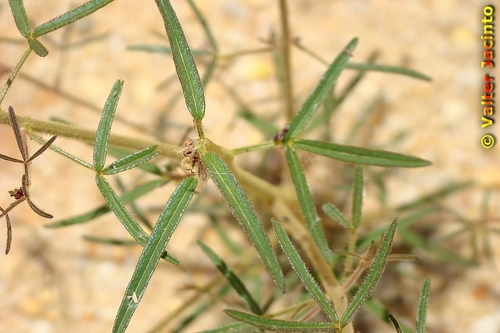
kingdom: Plantae
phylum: Tracheophyta
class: Magnoliopsida
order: Brassicales
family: Cleomaceae
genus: Cleome
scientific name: Cleome violacea
